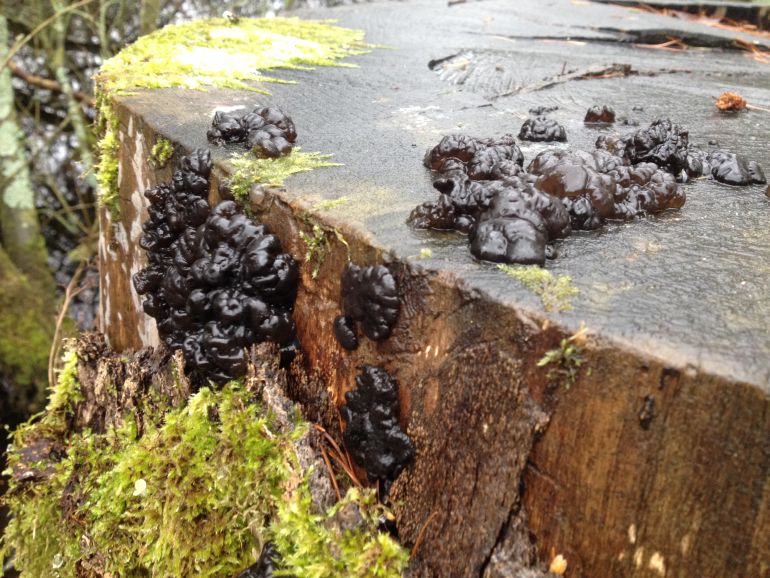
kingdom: Fungi
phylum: Basidiomycota
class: Agaricomycetes
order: Auriculariales
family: Auriculariaceae
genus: Exidia
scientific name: Exidia nigricans
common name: almindelig bævretop
